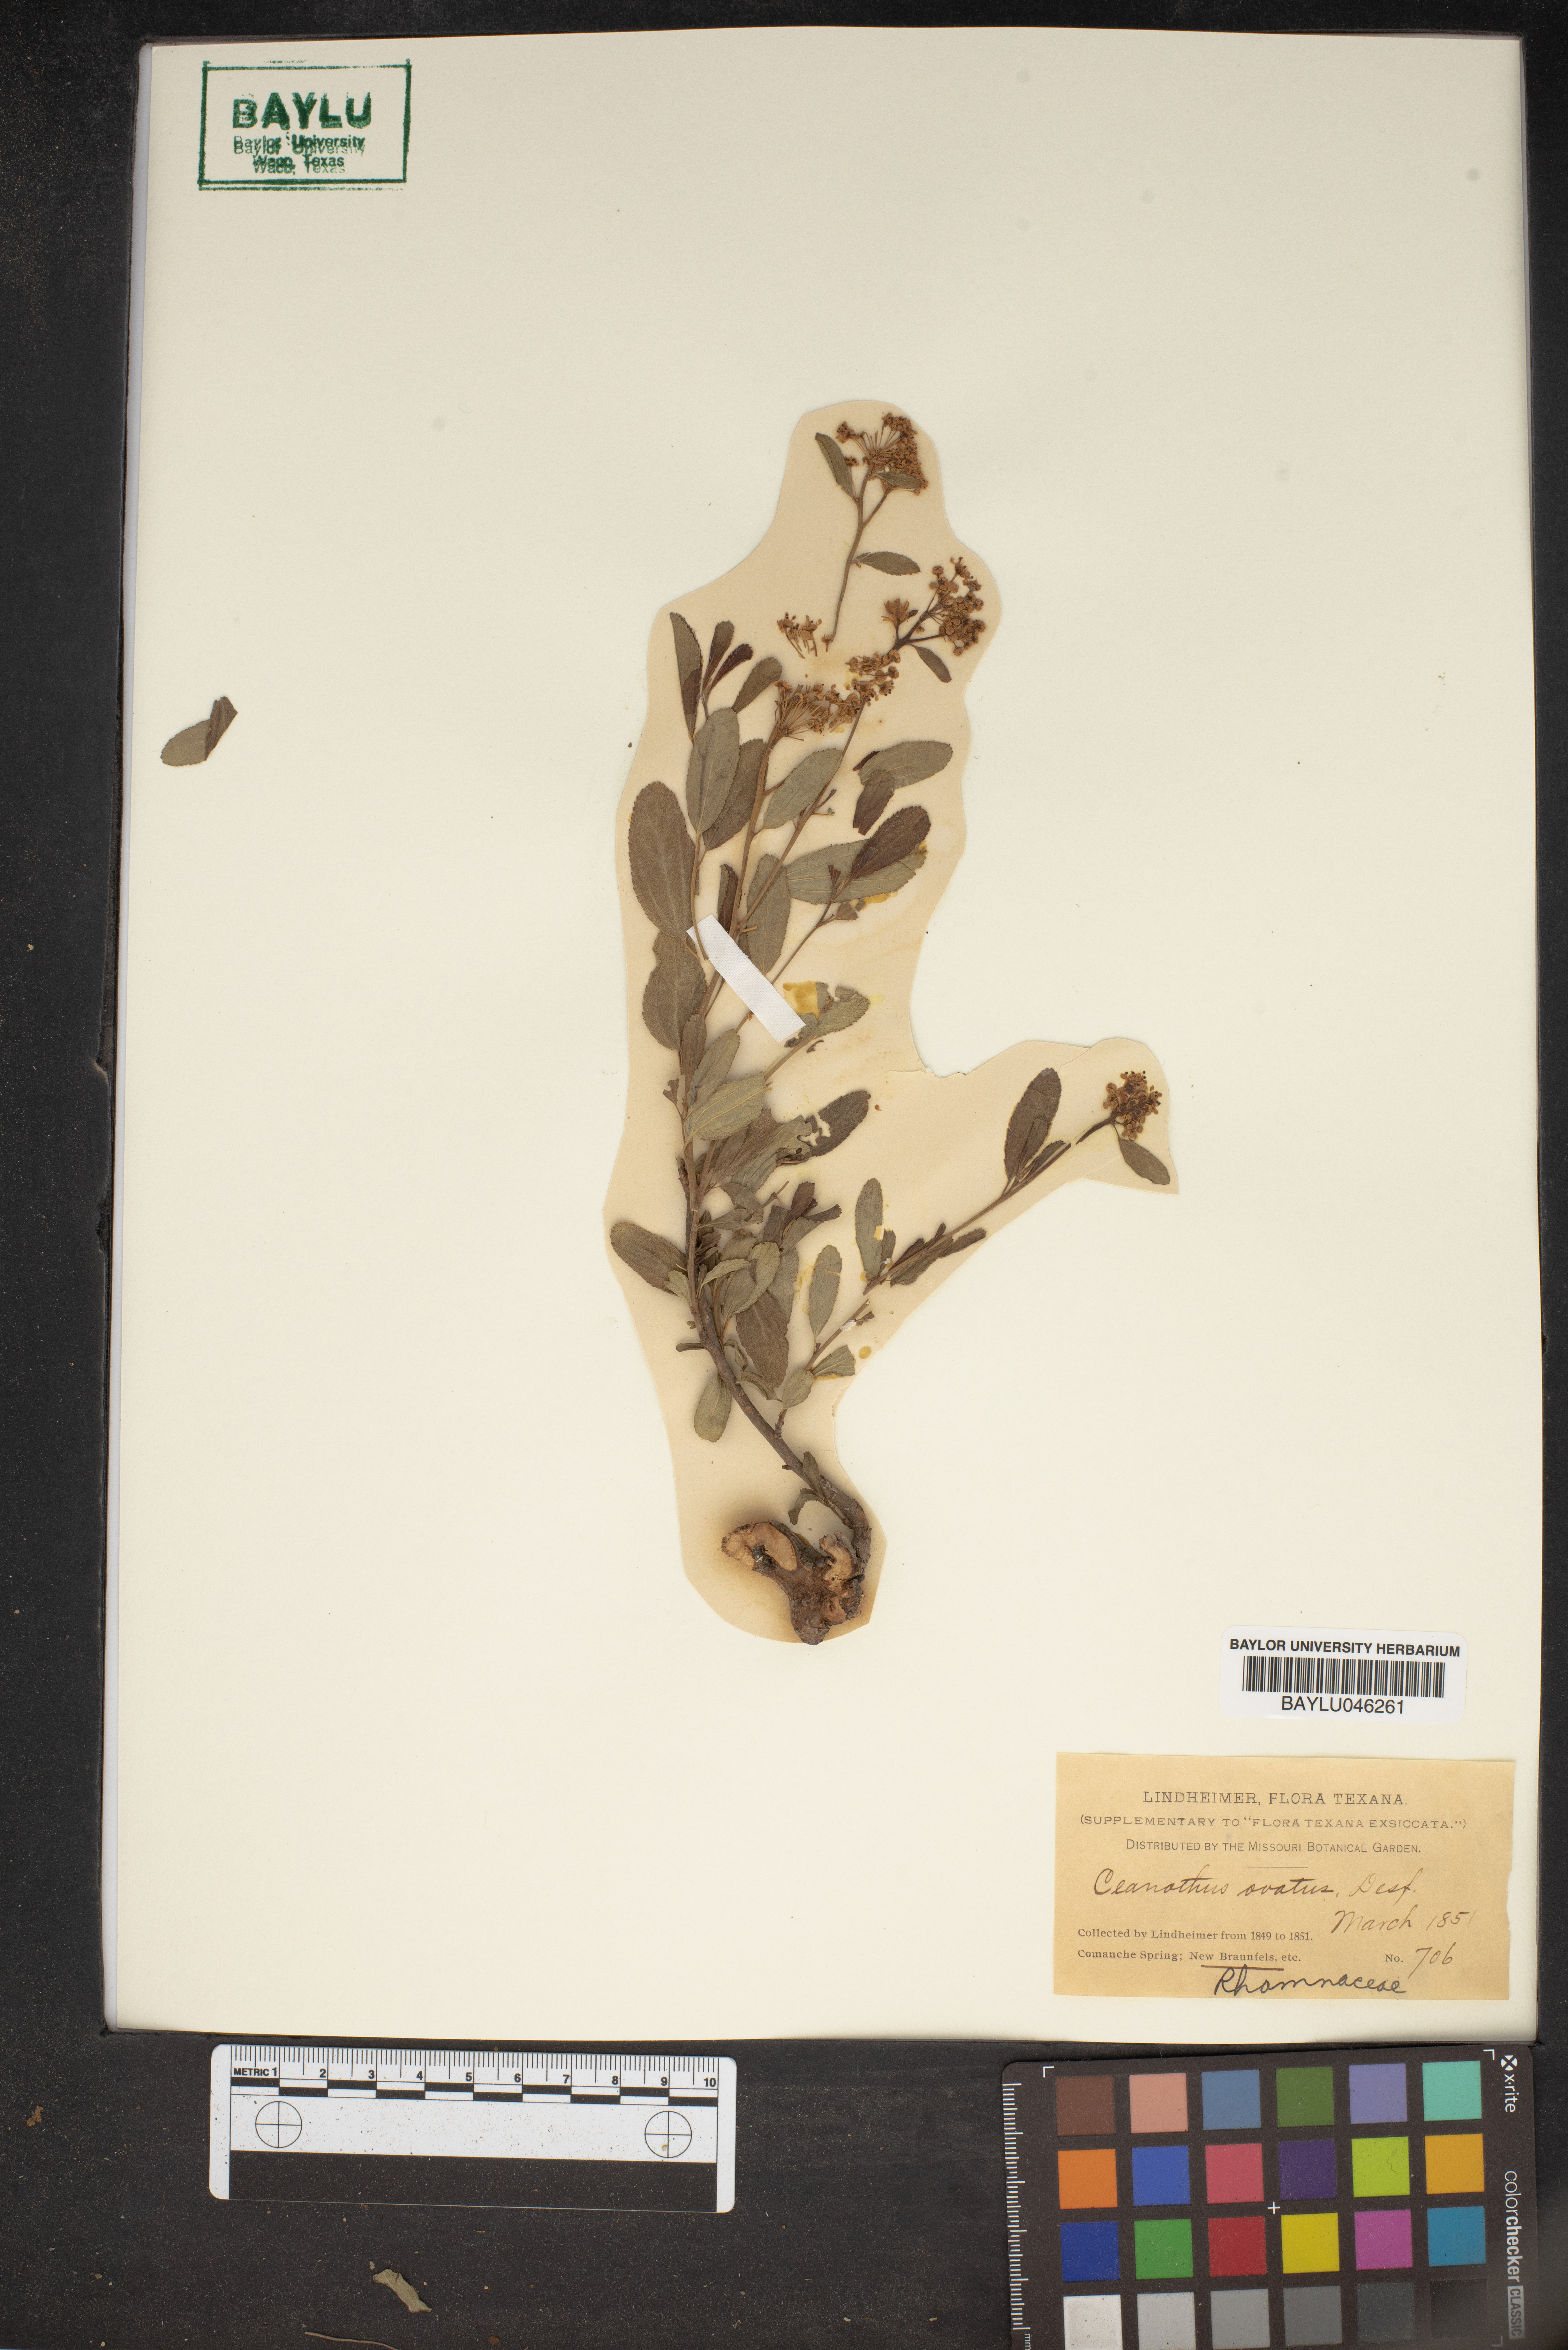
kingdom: Plantae
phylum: Tracheophyta
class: Magnoliopsida
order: Rosales
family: Rhamnaceae
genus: Ceanothus
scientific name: Ceanothus herbaceus
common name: Inland ceanothus
